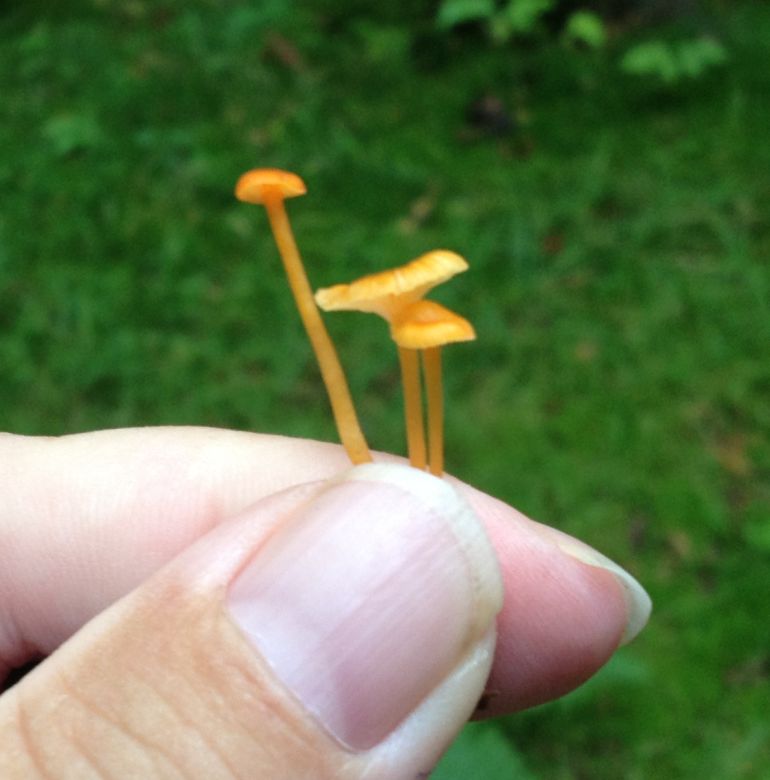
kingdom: Fungi
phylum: Basidiomycota
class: Agaricomycetes
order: Hymenochaetales
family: Rickenellaceae
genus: Rickenella
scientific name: Rickenella fibula
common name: orange mosnavlehat
